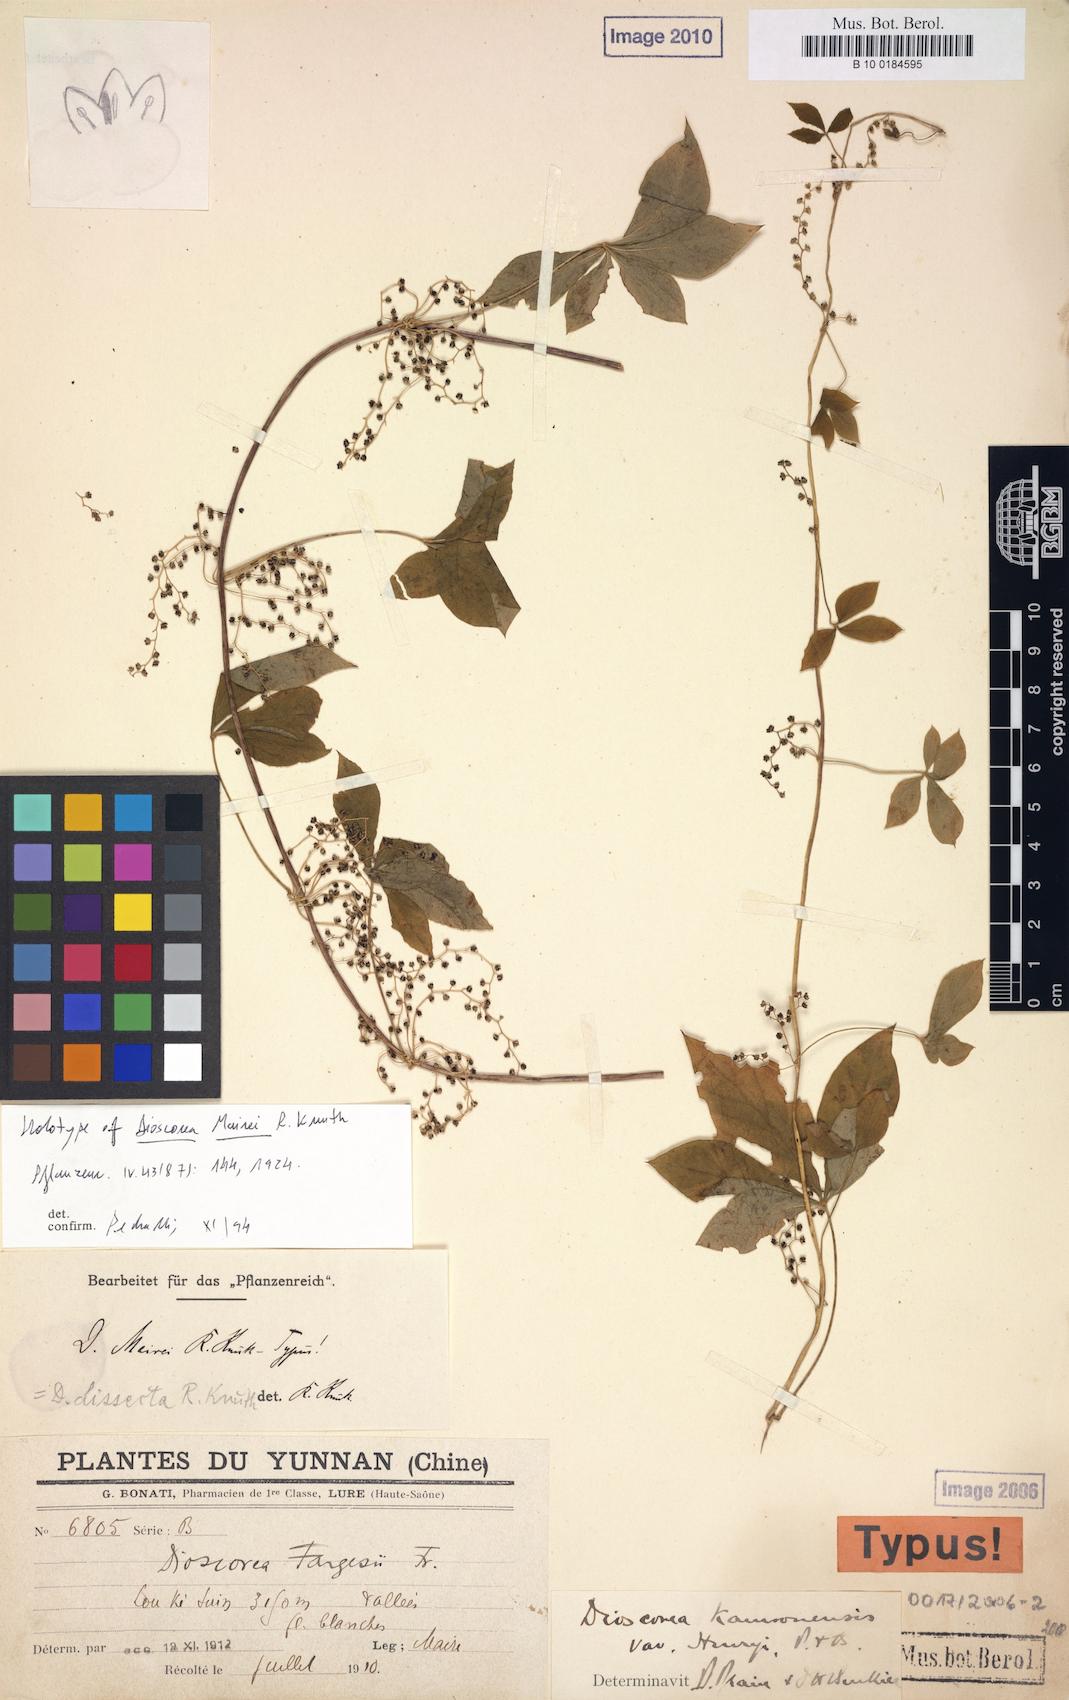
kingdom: Plantae
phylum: Tracheophyta
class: Liliopsida
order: Dioscoreales
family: Dioscoreaceae
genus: Dioscorea
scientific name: Dioscorea
